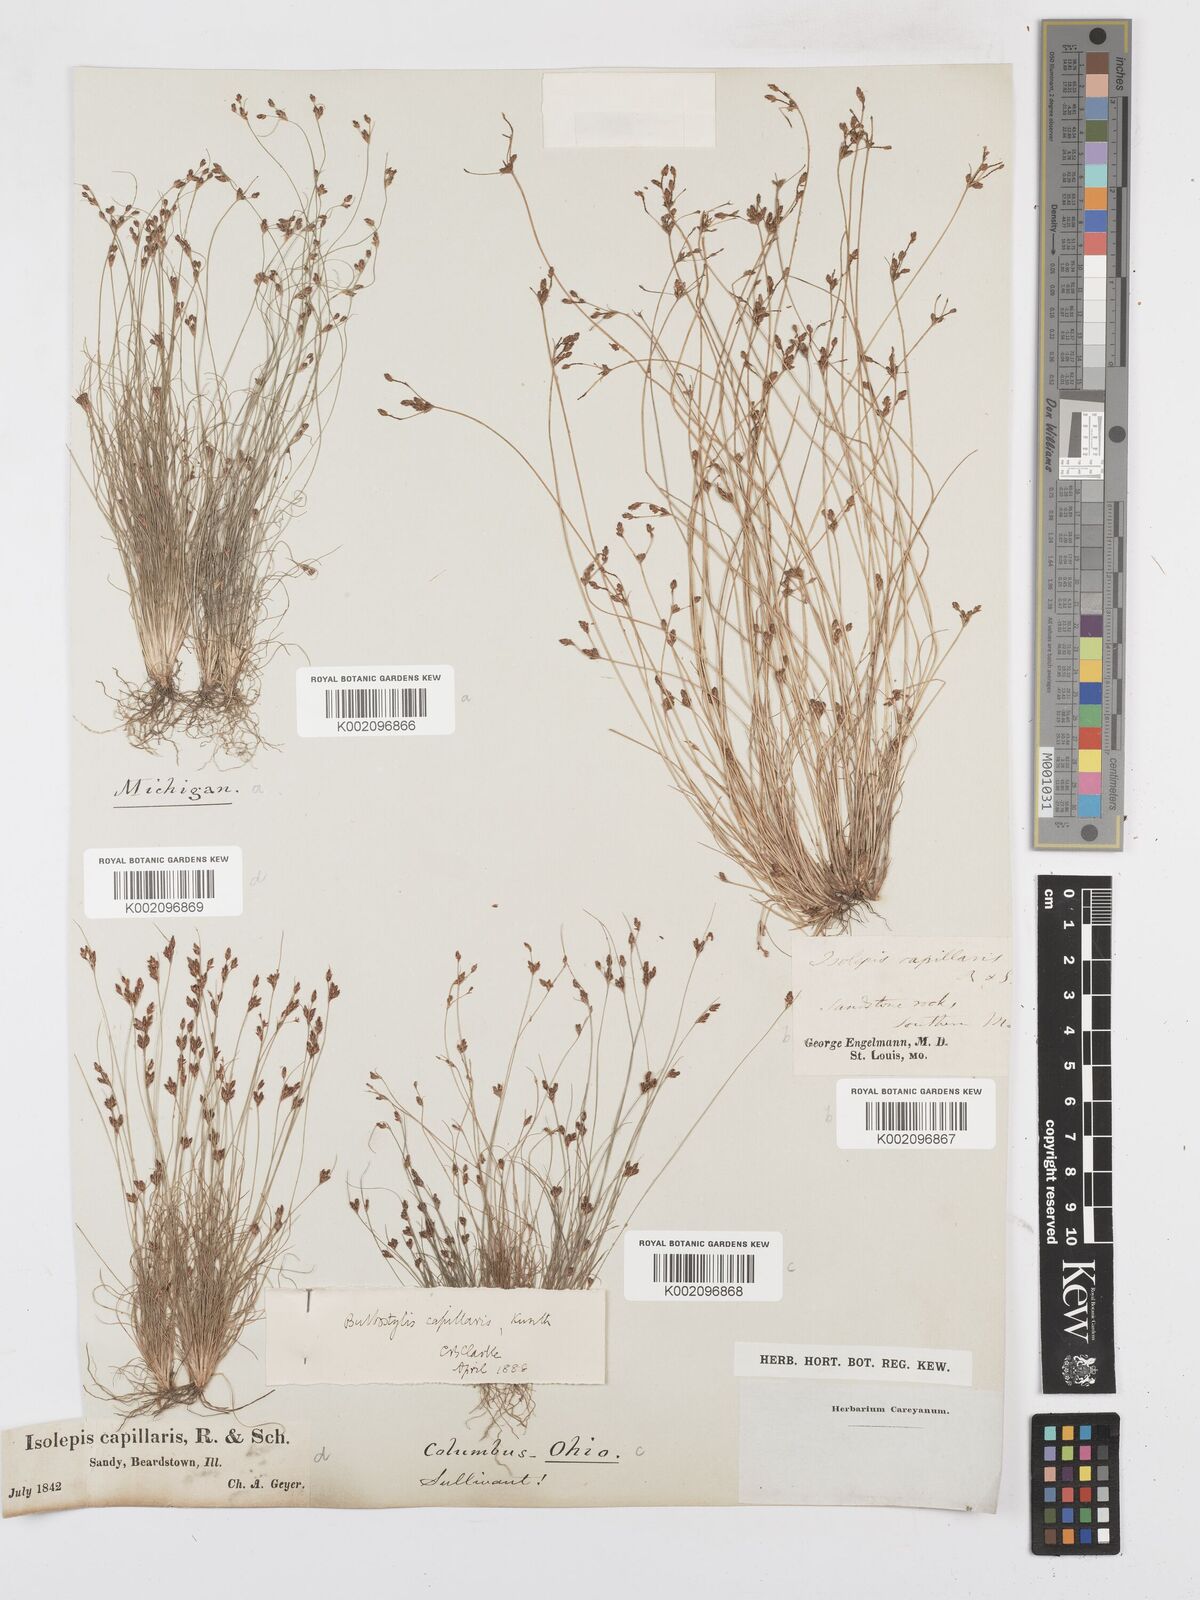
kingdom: Plantae
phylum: Tracheophyta
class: Liliopsida
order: Poales
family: Cyperaceae
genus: Bulbostylis
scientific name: Bulbostylis capillaris
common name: Densetuft hairsedge
